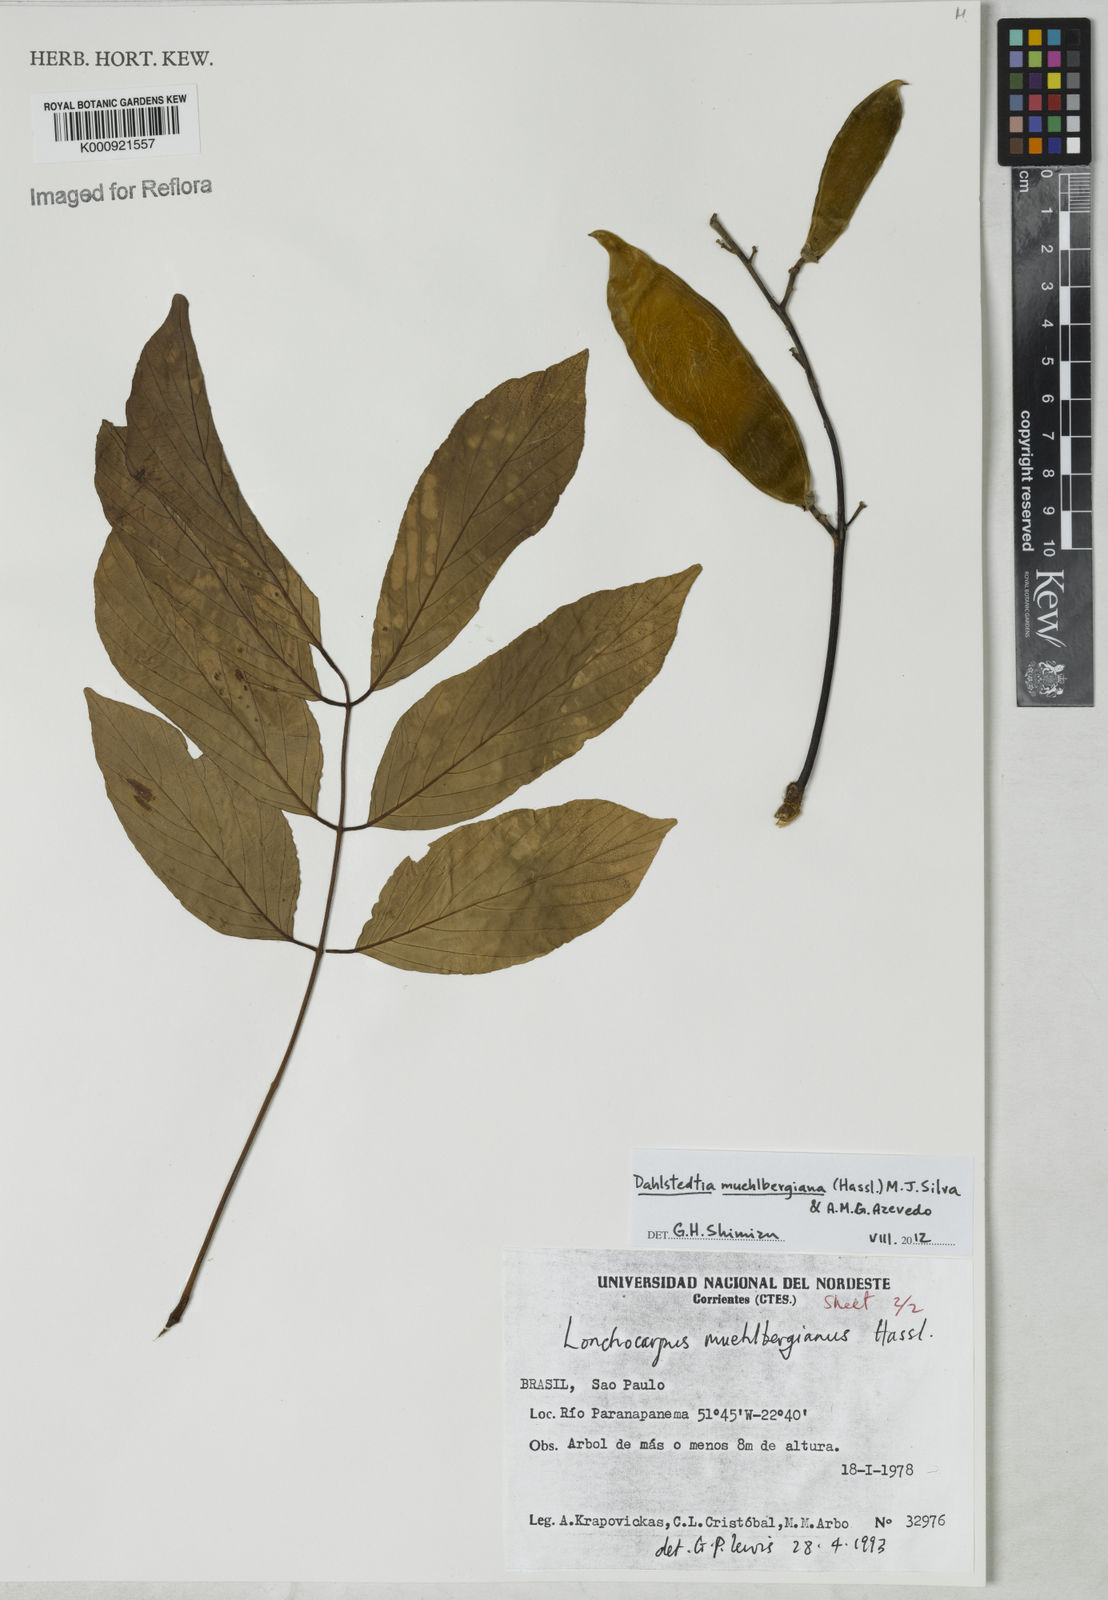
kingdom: Plantae
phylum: Tracheophyta
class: Magnoliopsida
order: Fabales
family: Fabaceae
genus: Dahlstedtia
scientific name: Dahlstedtia muehlbergiana
